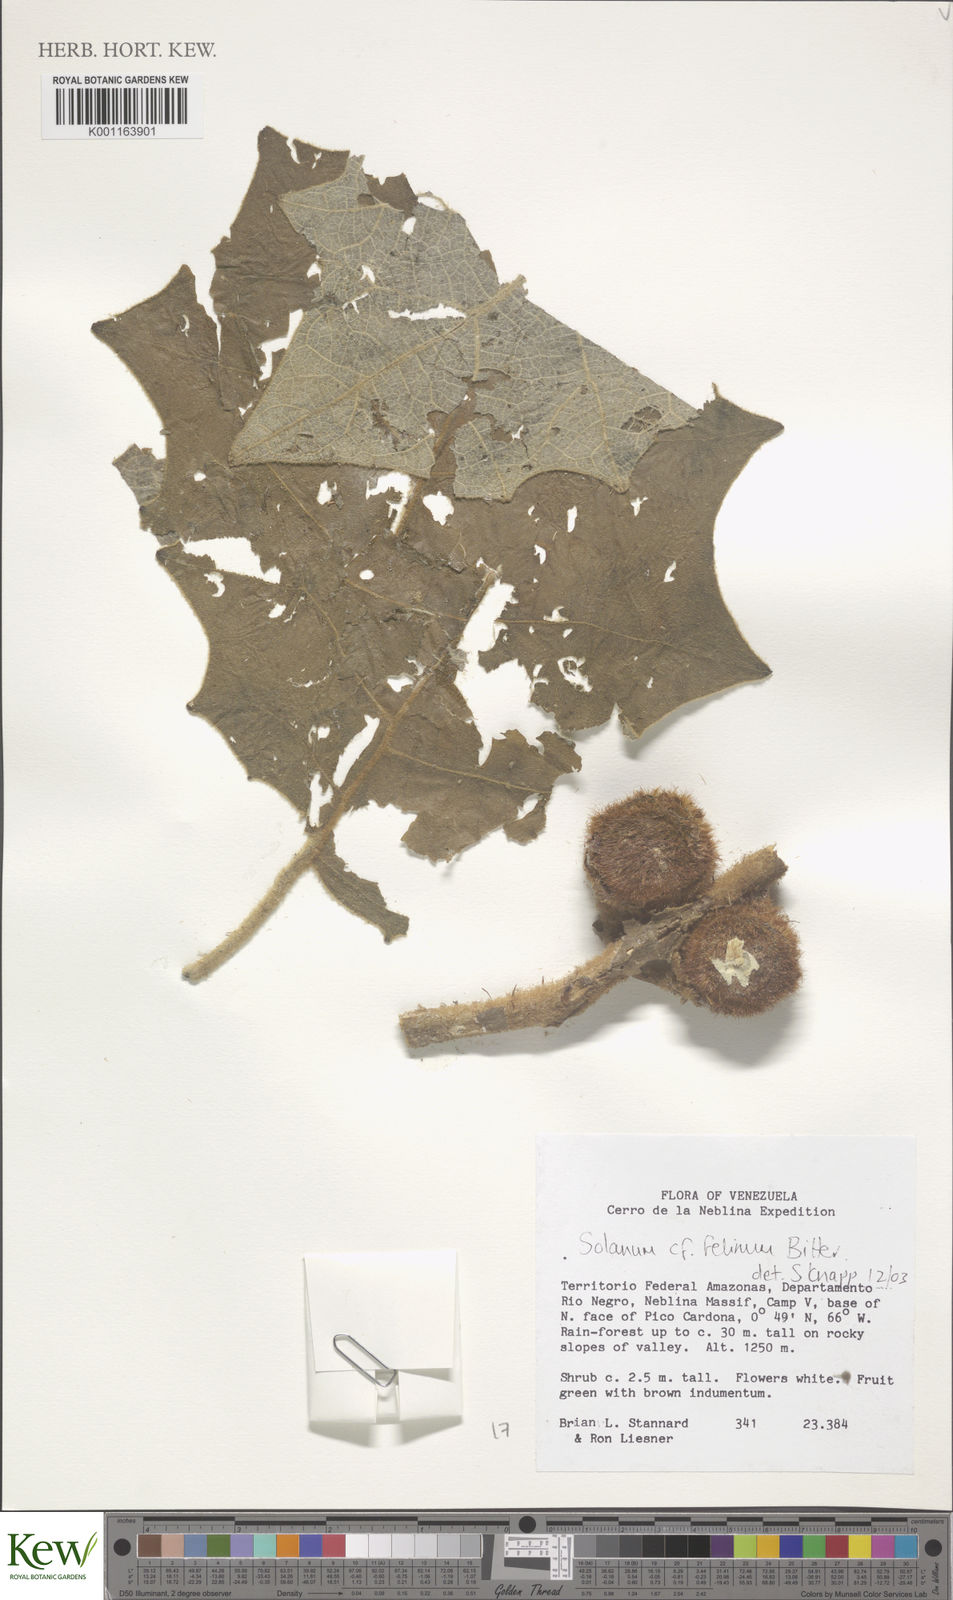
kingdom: Plantae
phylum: Tracheophyta
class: Magnoliopsida
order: Solanales
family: Solanaceae
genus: Solanum
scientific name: Solanum felinum
